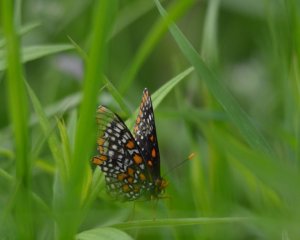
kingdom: Animalia
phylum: Arthropoda
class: Insecta
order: Lepidoptera
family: Nymphalidae
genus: Euphydryas
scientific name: Euphydryas phaeton
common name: Baltimore Checkerspot
